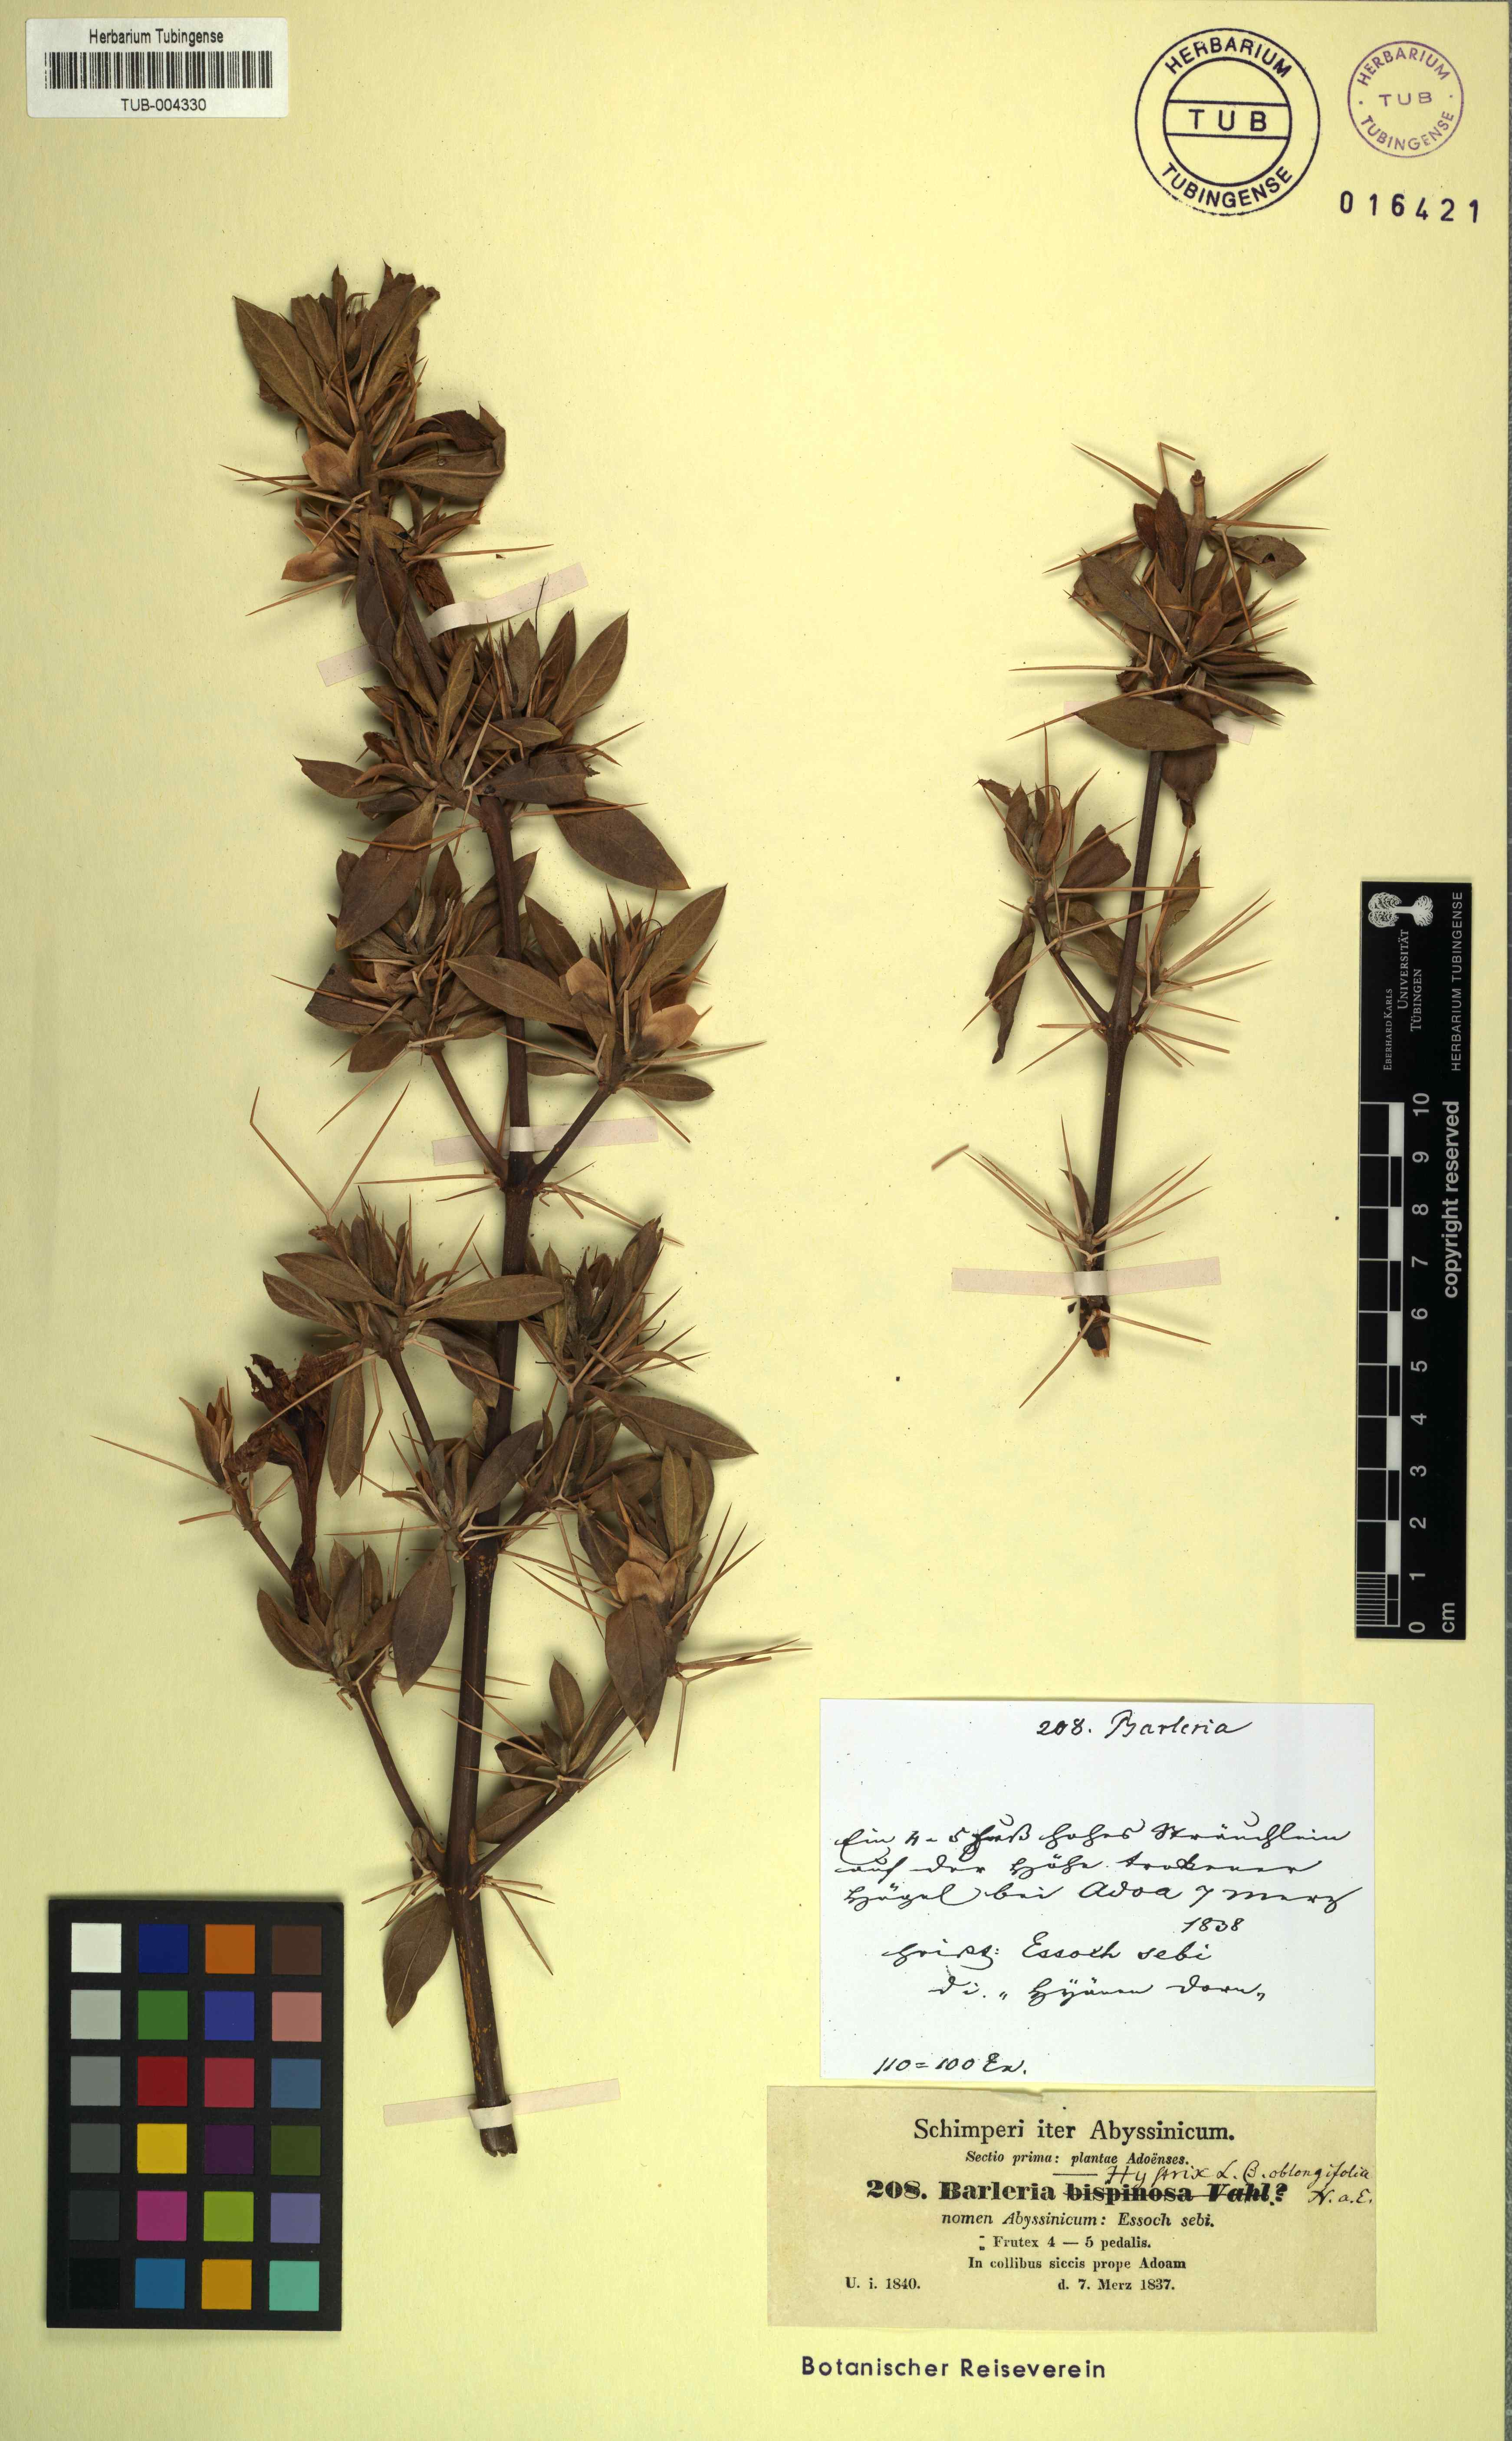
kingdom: Plantae
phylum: Tracheophyta
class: Magnoliopsida
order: Lamiales
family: Acanthaceae
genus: Barleria
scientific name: Barleria prionitis
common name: Barleria
